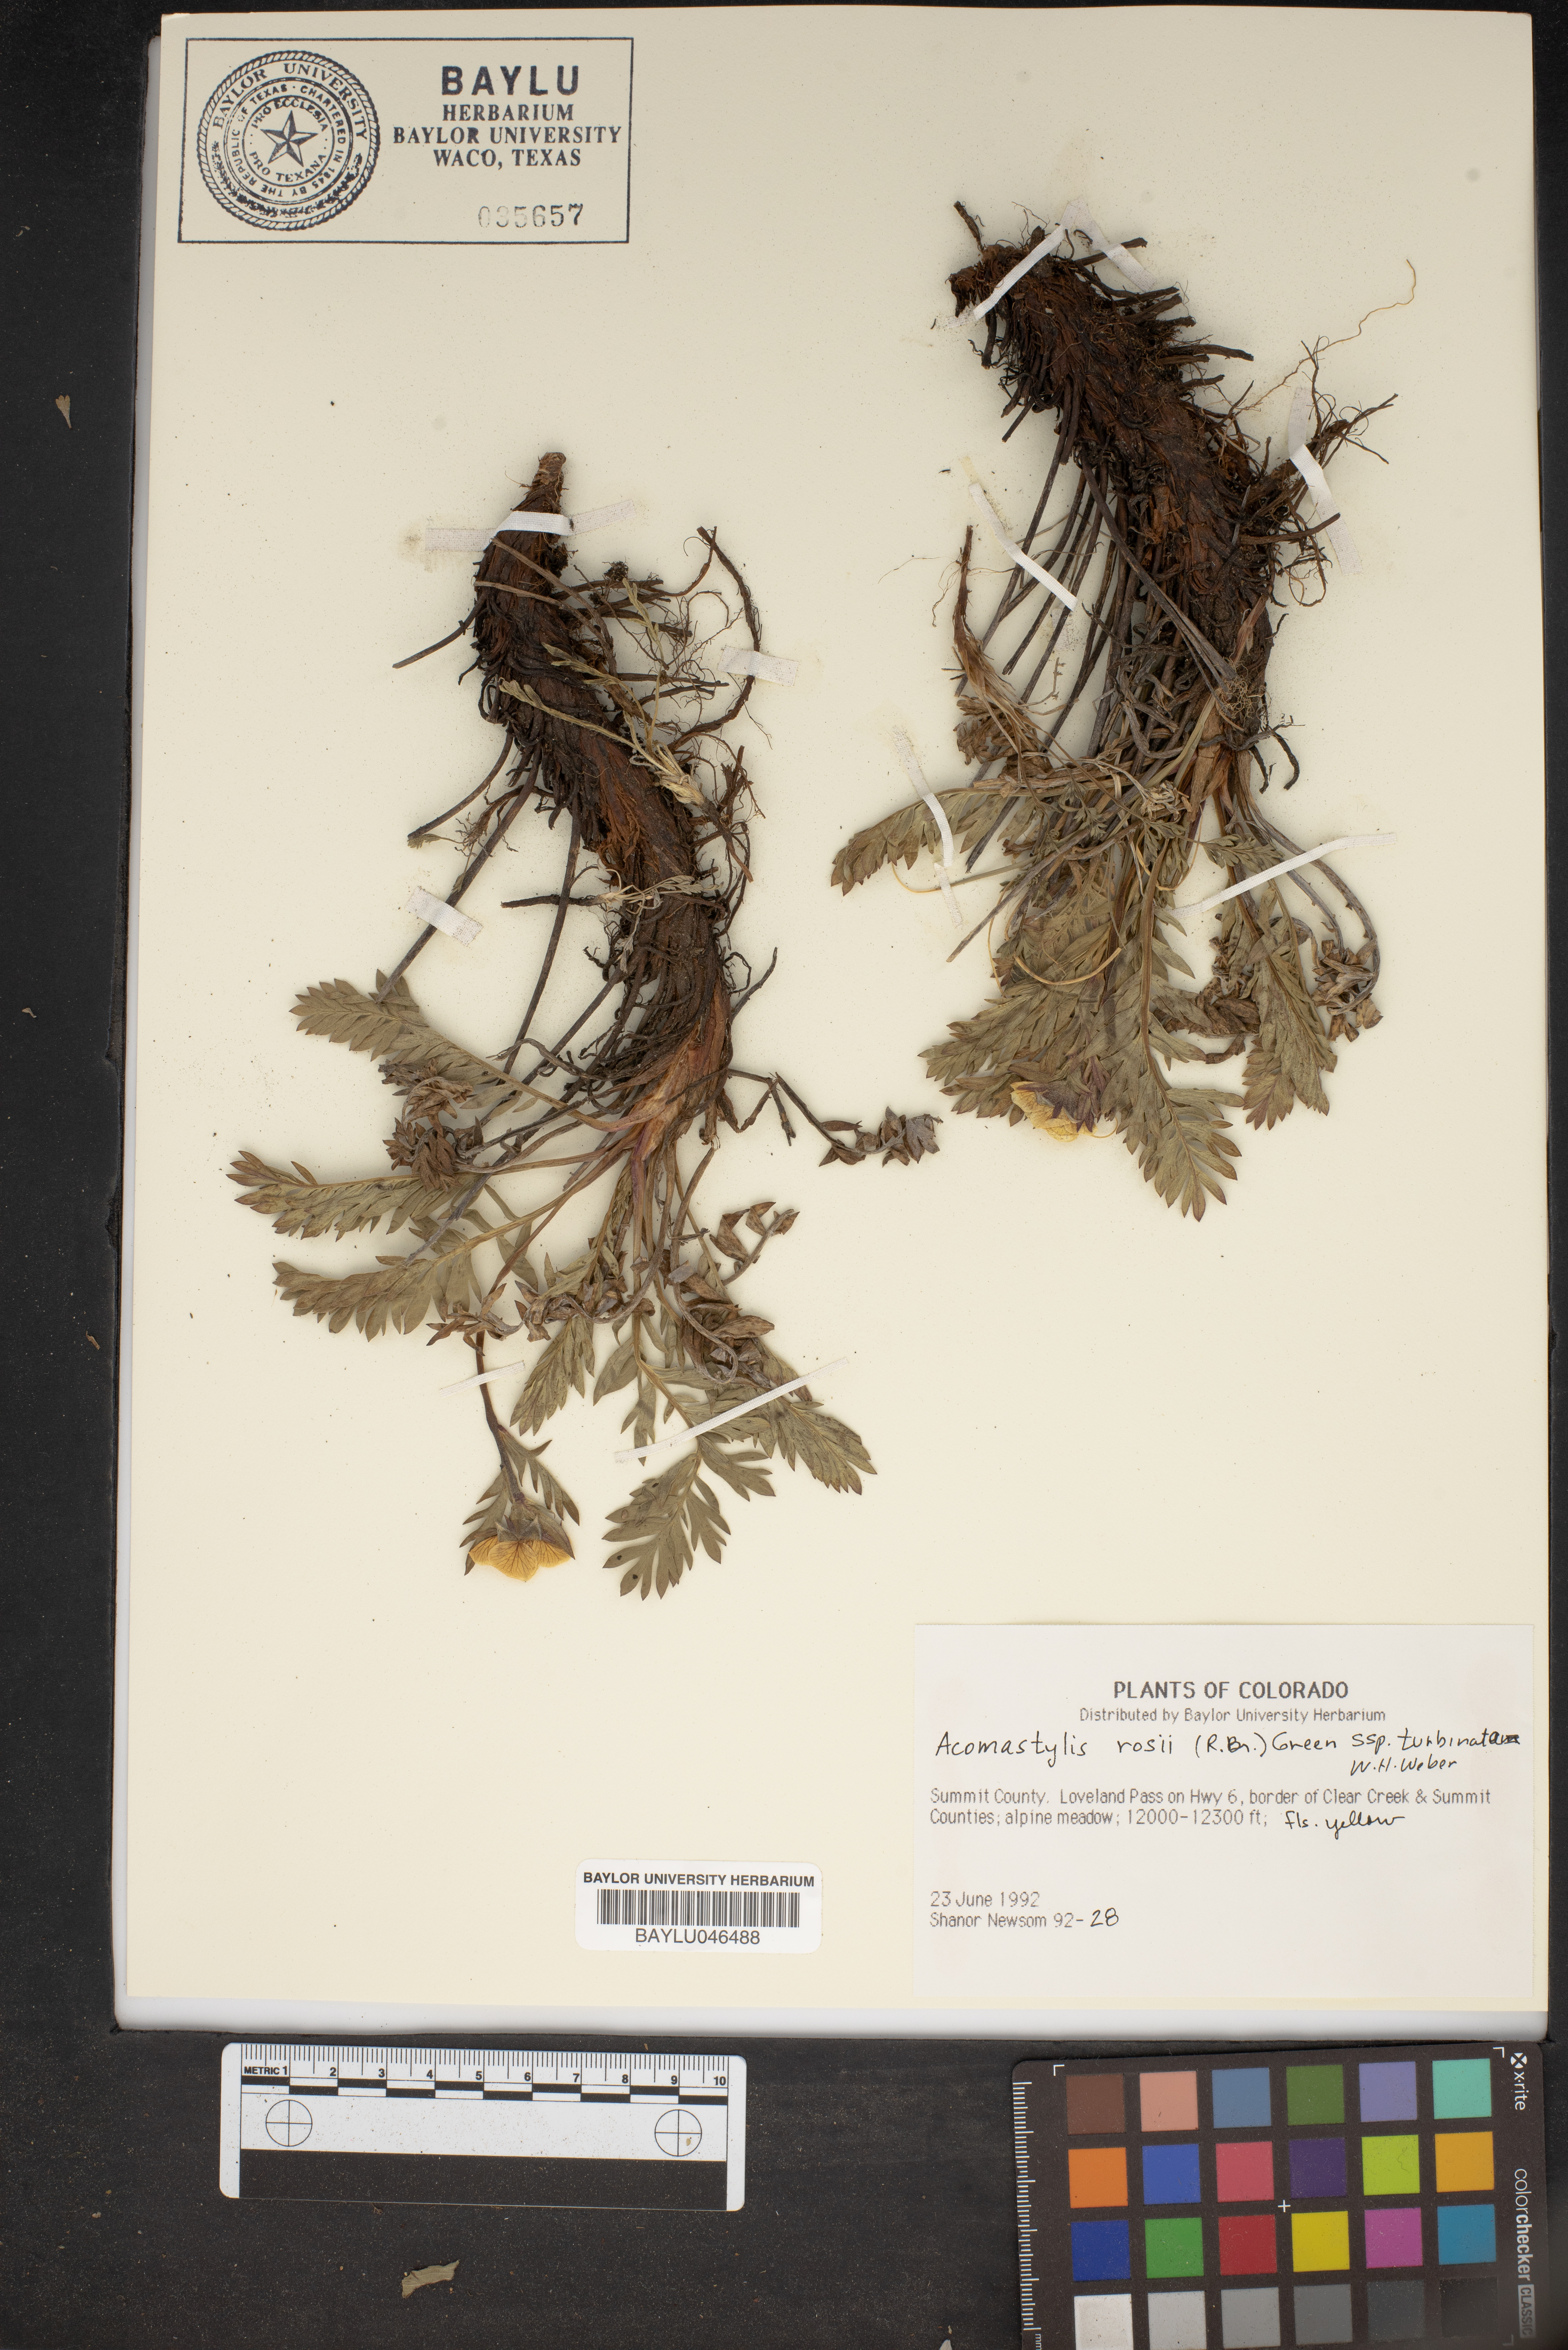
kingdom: Plantae
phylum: Tracheophyta
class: Magnoliopsida
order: Rosales
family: Rosaceae
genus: Geum
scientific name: Geum rossii
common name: Alpine avens
